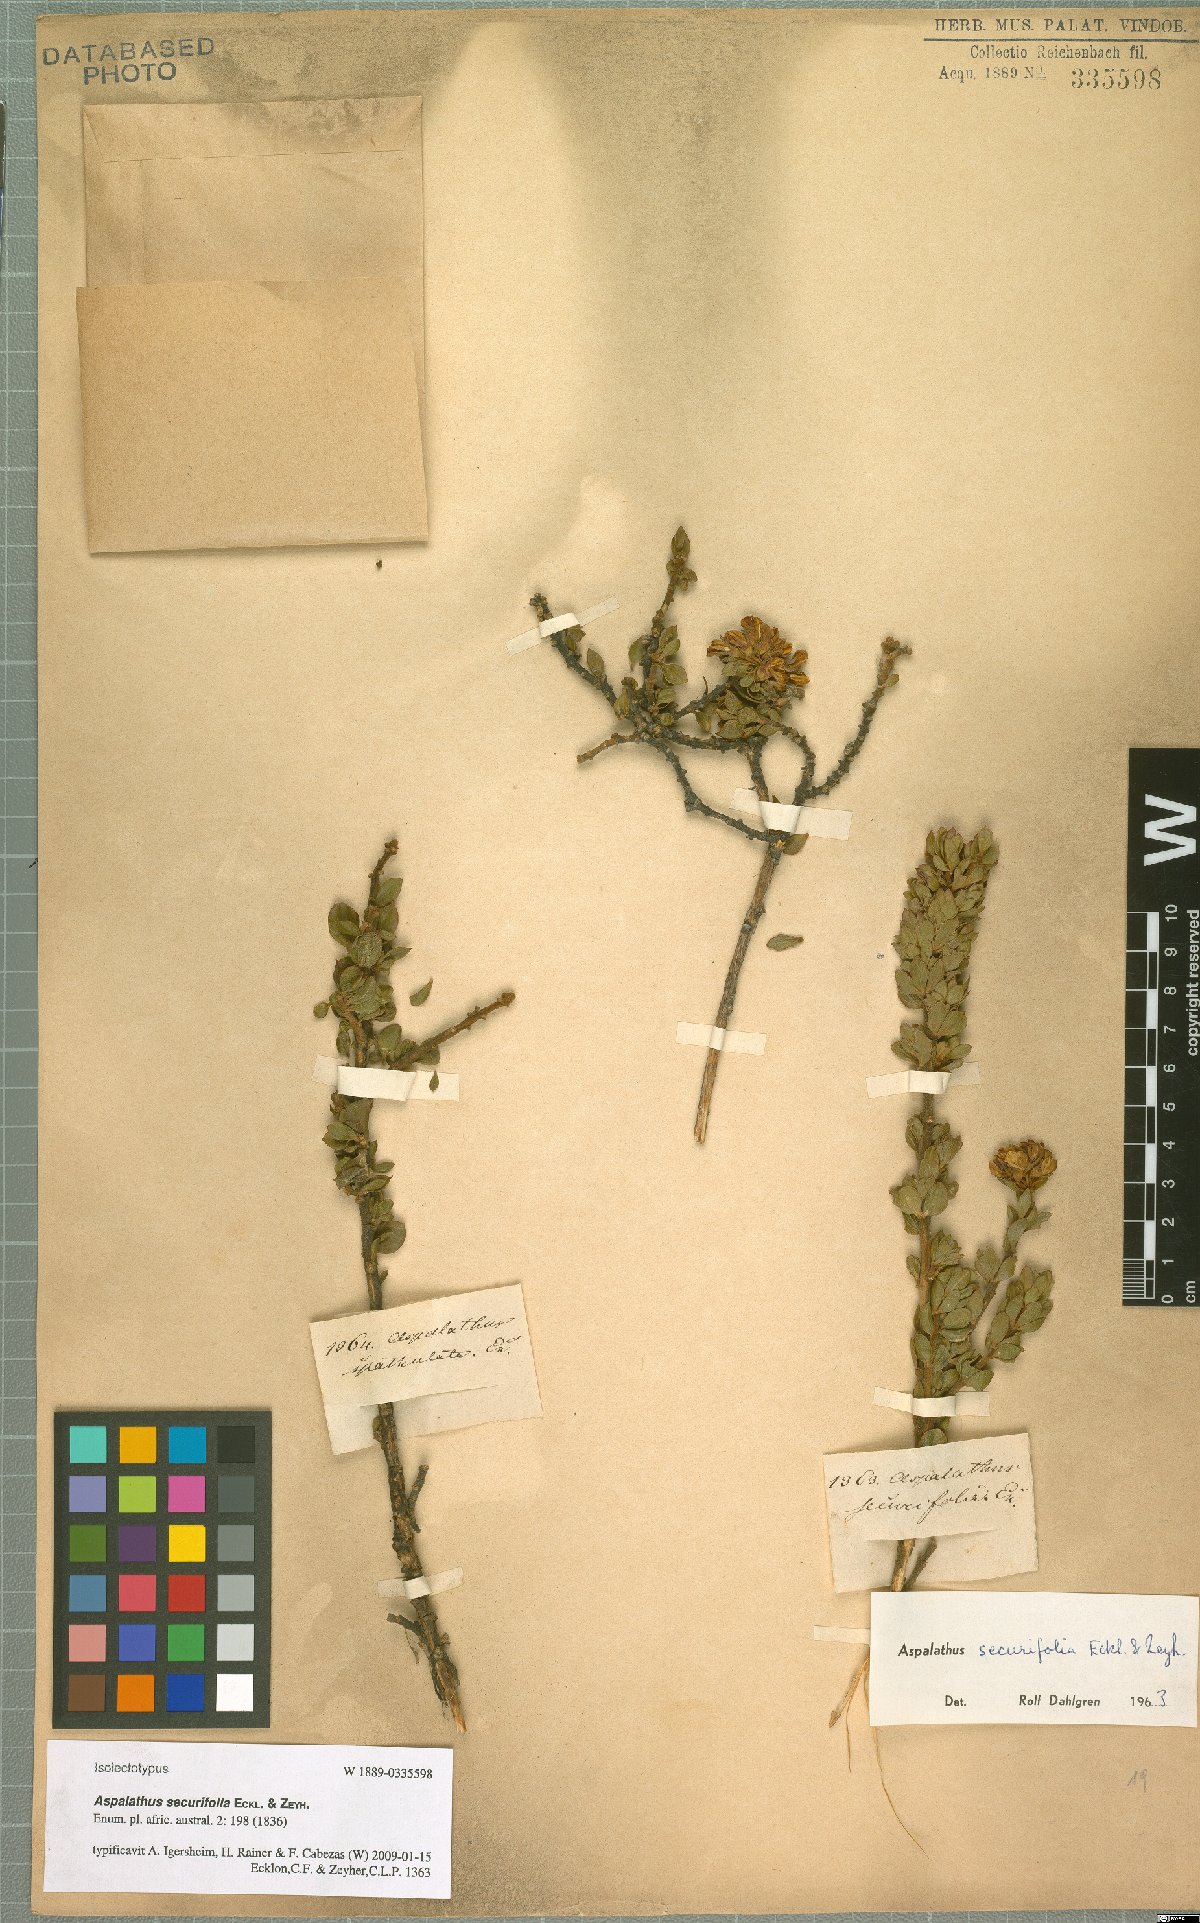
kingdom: Plantae
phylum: Tracheophyta
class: Magnoliopsida
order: Fabales
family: Fabaceae
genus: Aspalathus
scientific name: Aspalathus securifolia
